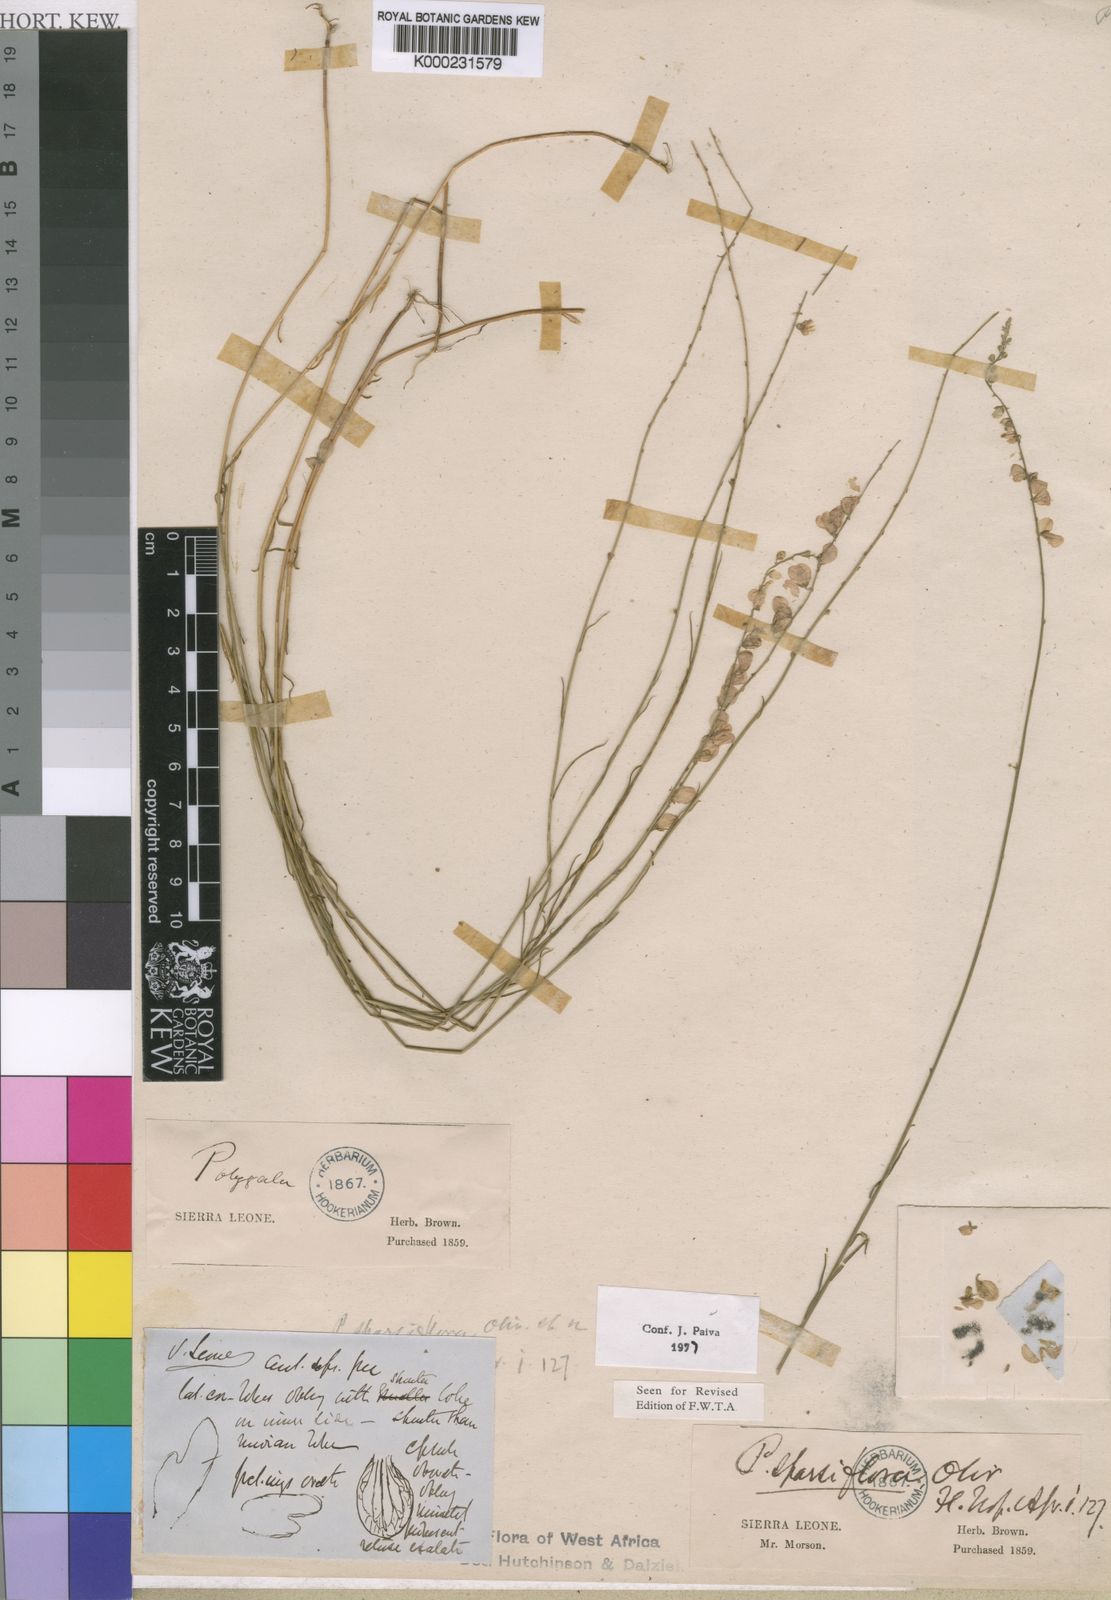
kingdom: Plantae
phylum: Tracheophyta
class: Magnoliopsida
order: Fabales
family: Polygalaceae
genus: Polygala
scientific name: Polygala
